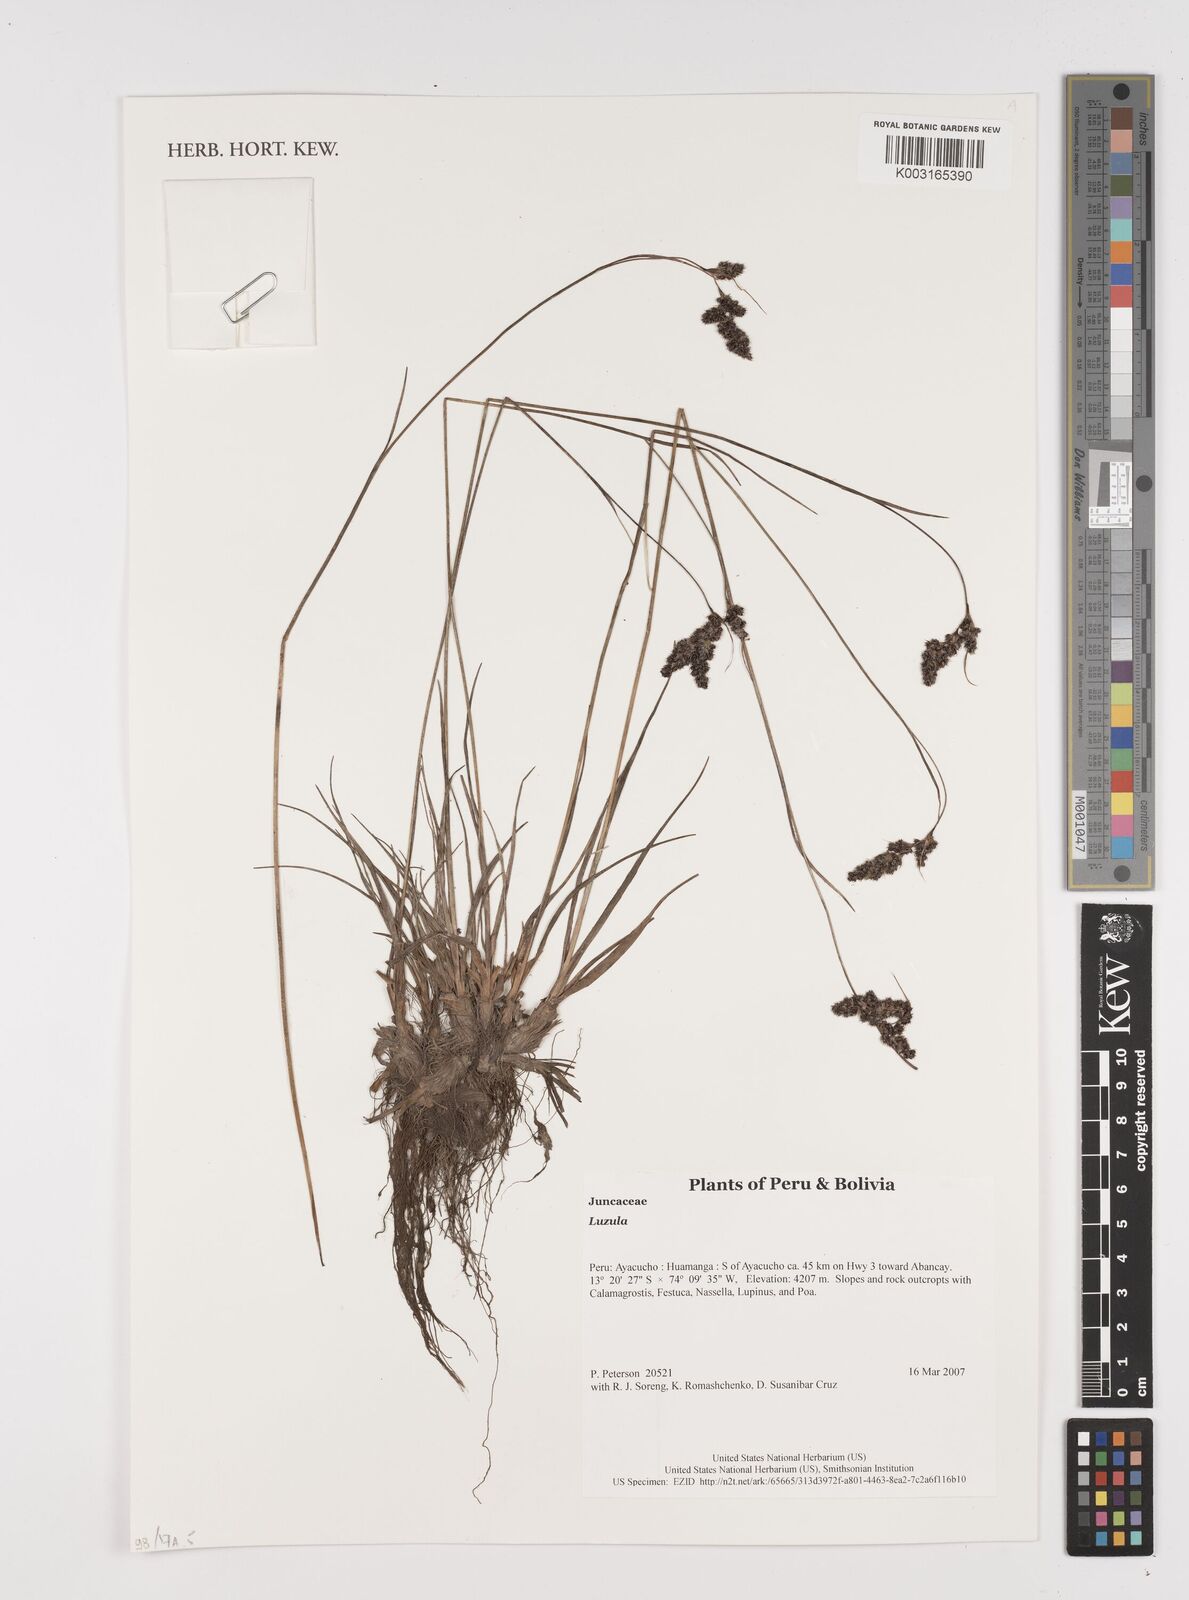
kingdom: Plantae
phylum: Tracheophyta
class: Liliopsida
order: Poales
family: Juncaceae
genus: Luzula
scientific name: Luzula
